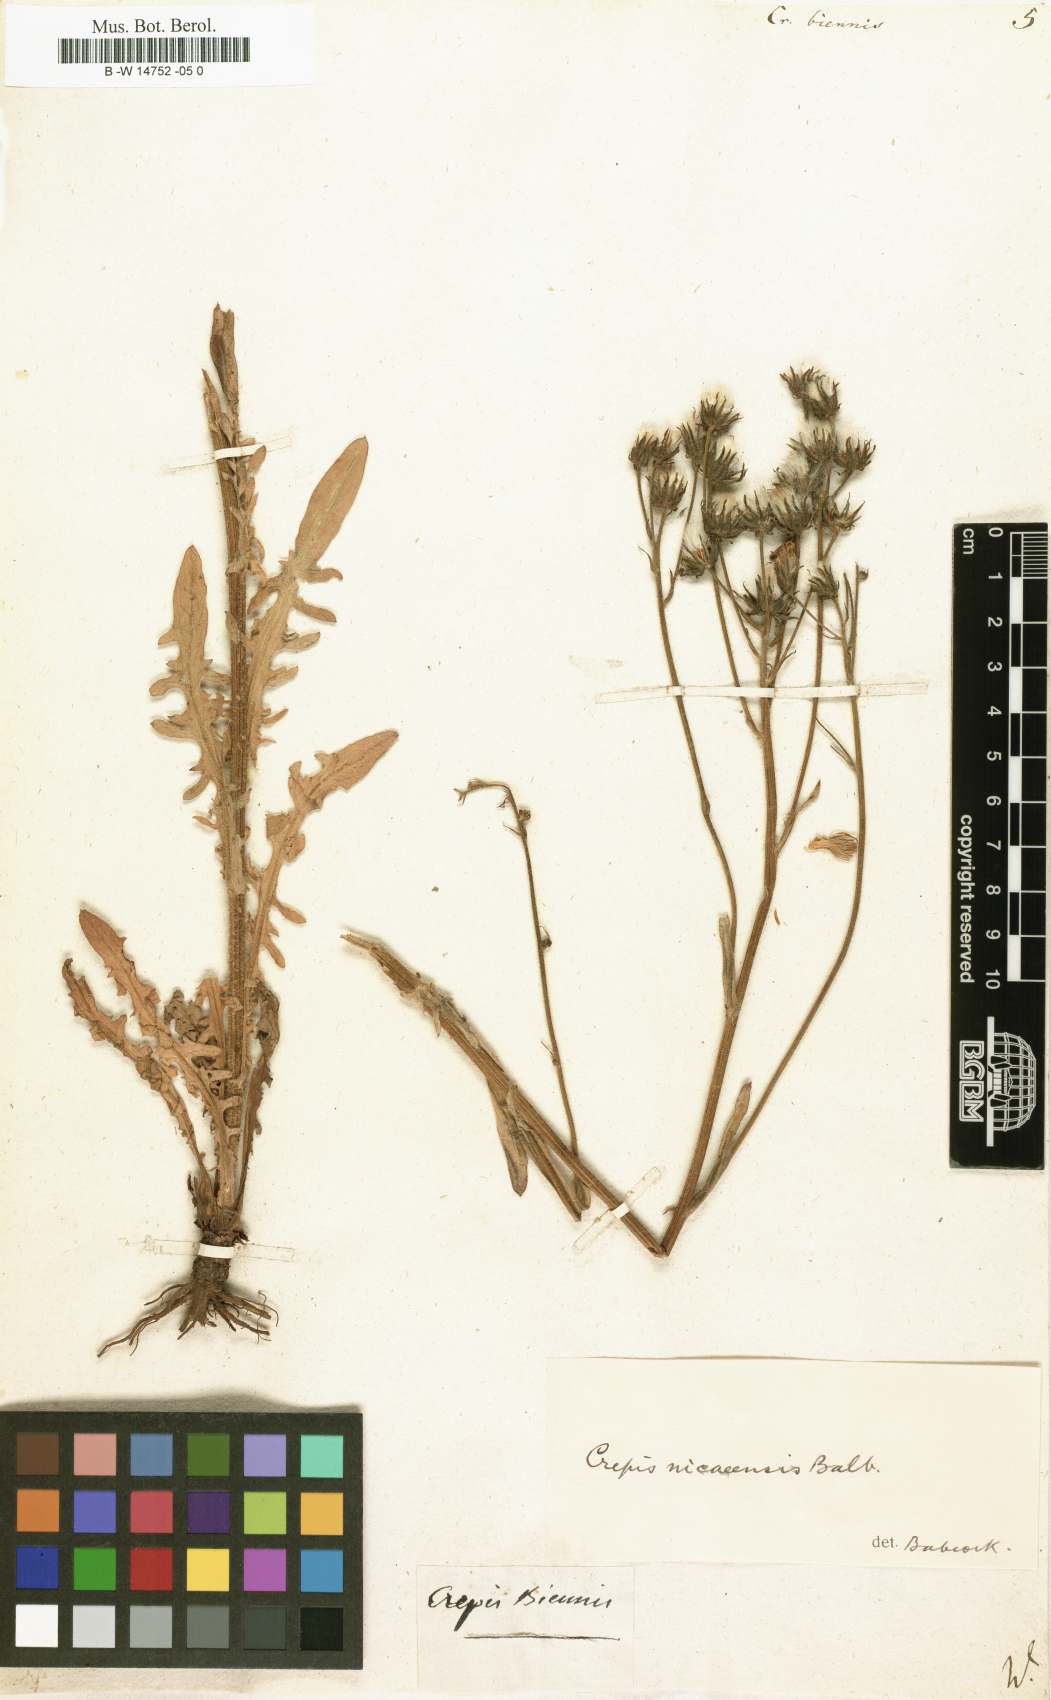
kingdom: Plantae
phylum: Tracheophyta
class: Magnoliopsida
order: Asterales
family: Asteraceae
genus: Crepis
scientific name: Crepis biennis
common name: Rough hawk's-beard
